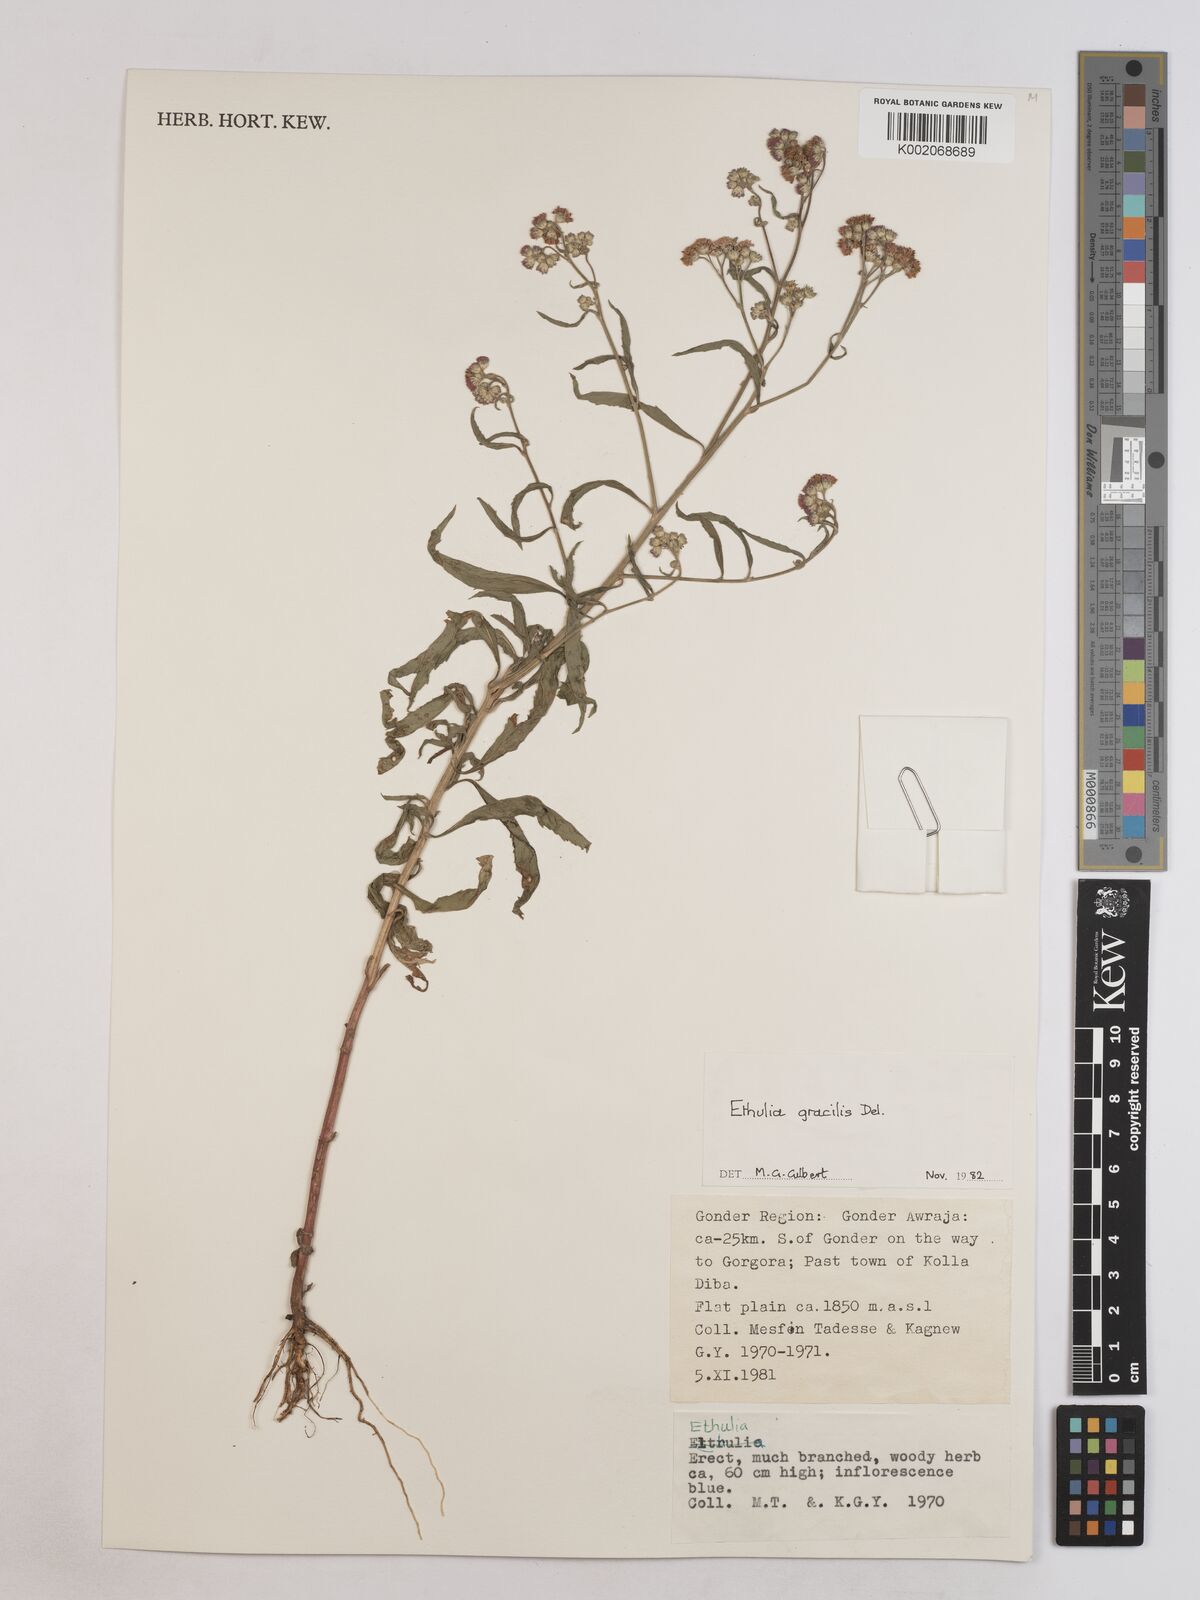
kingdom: Plantae
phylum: Tracheophyta
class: Magnoliopsida
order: Asterales
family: Asteraceae
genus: Ethulia
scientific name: Ethulia gracilis
